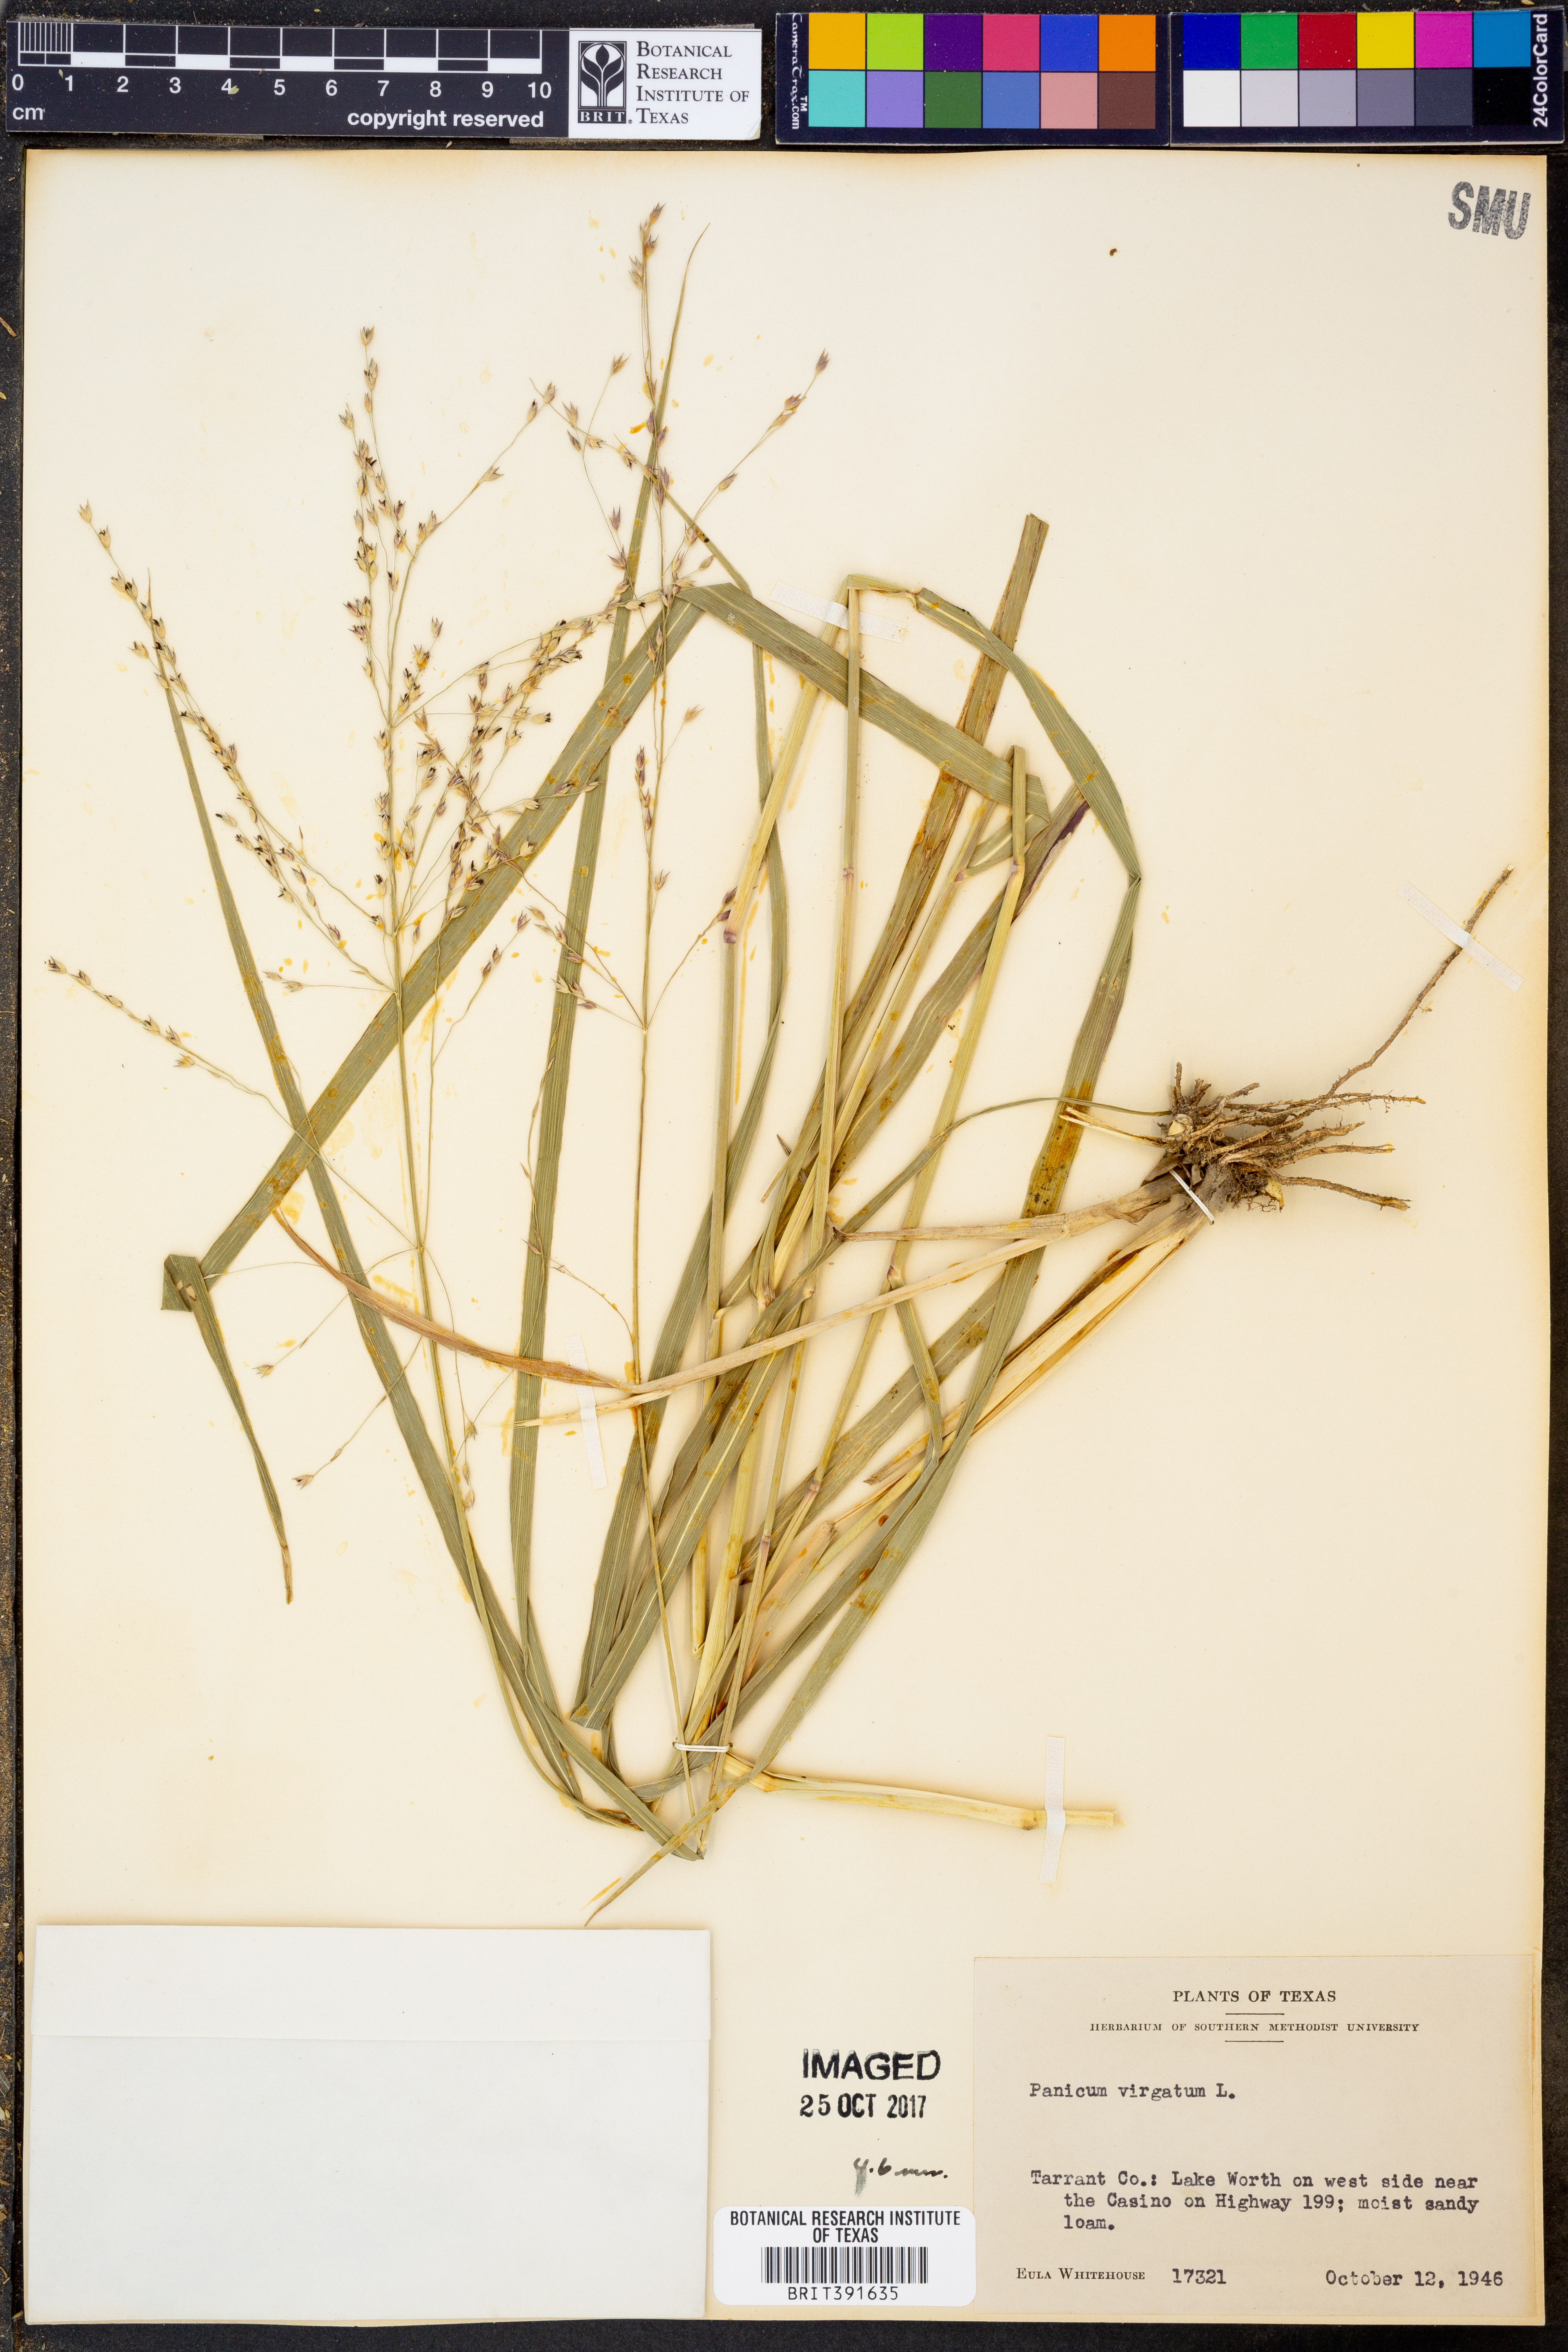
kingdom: Plantae
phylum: Tracheophyta
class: Liliopsida
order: Poales
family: Poaceae
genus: Panicum
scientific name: Panicum virgatum
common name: Switchgrass
